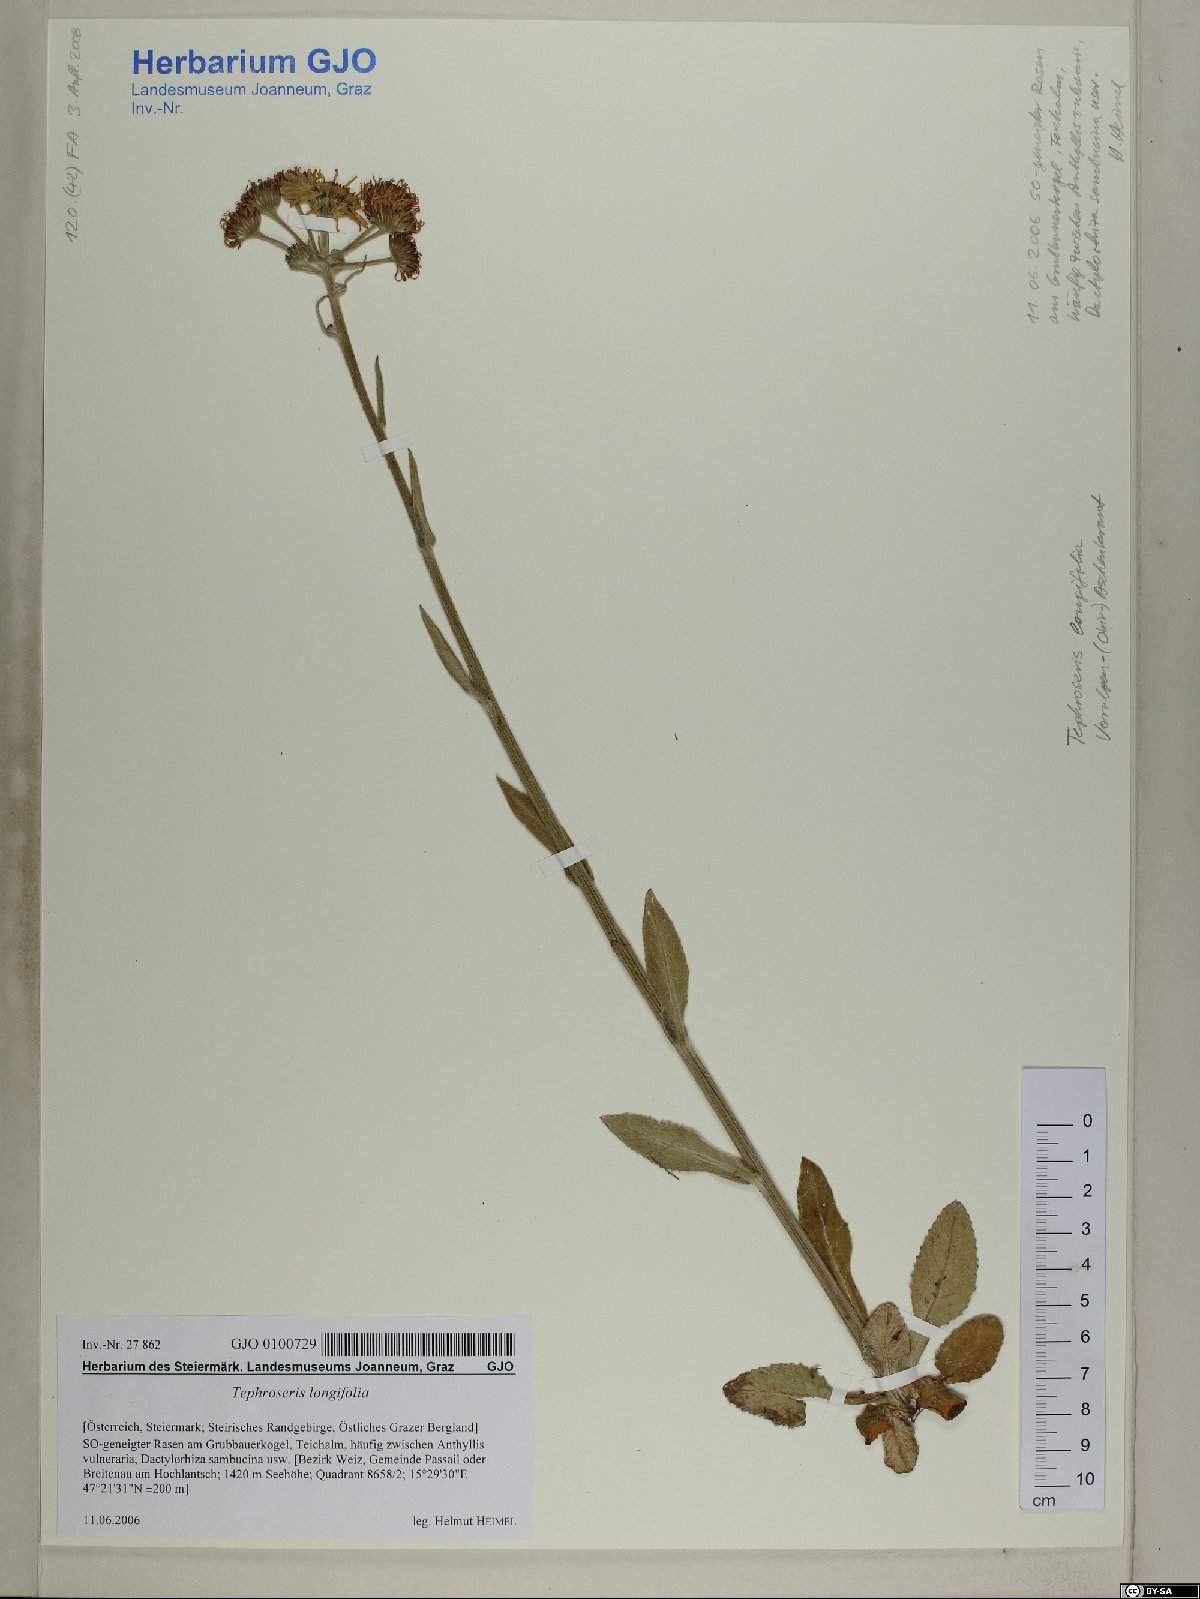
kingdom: Plantae
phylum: Tracheophyta
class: Magnoliopsida
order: Asterales
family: Asteraceae
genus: Tephroseris
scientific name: Tephroseris longifolia
